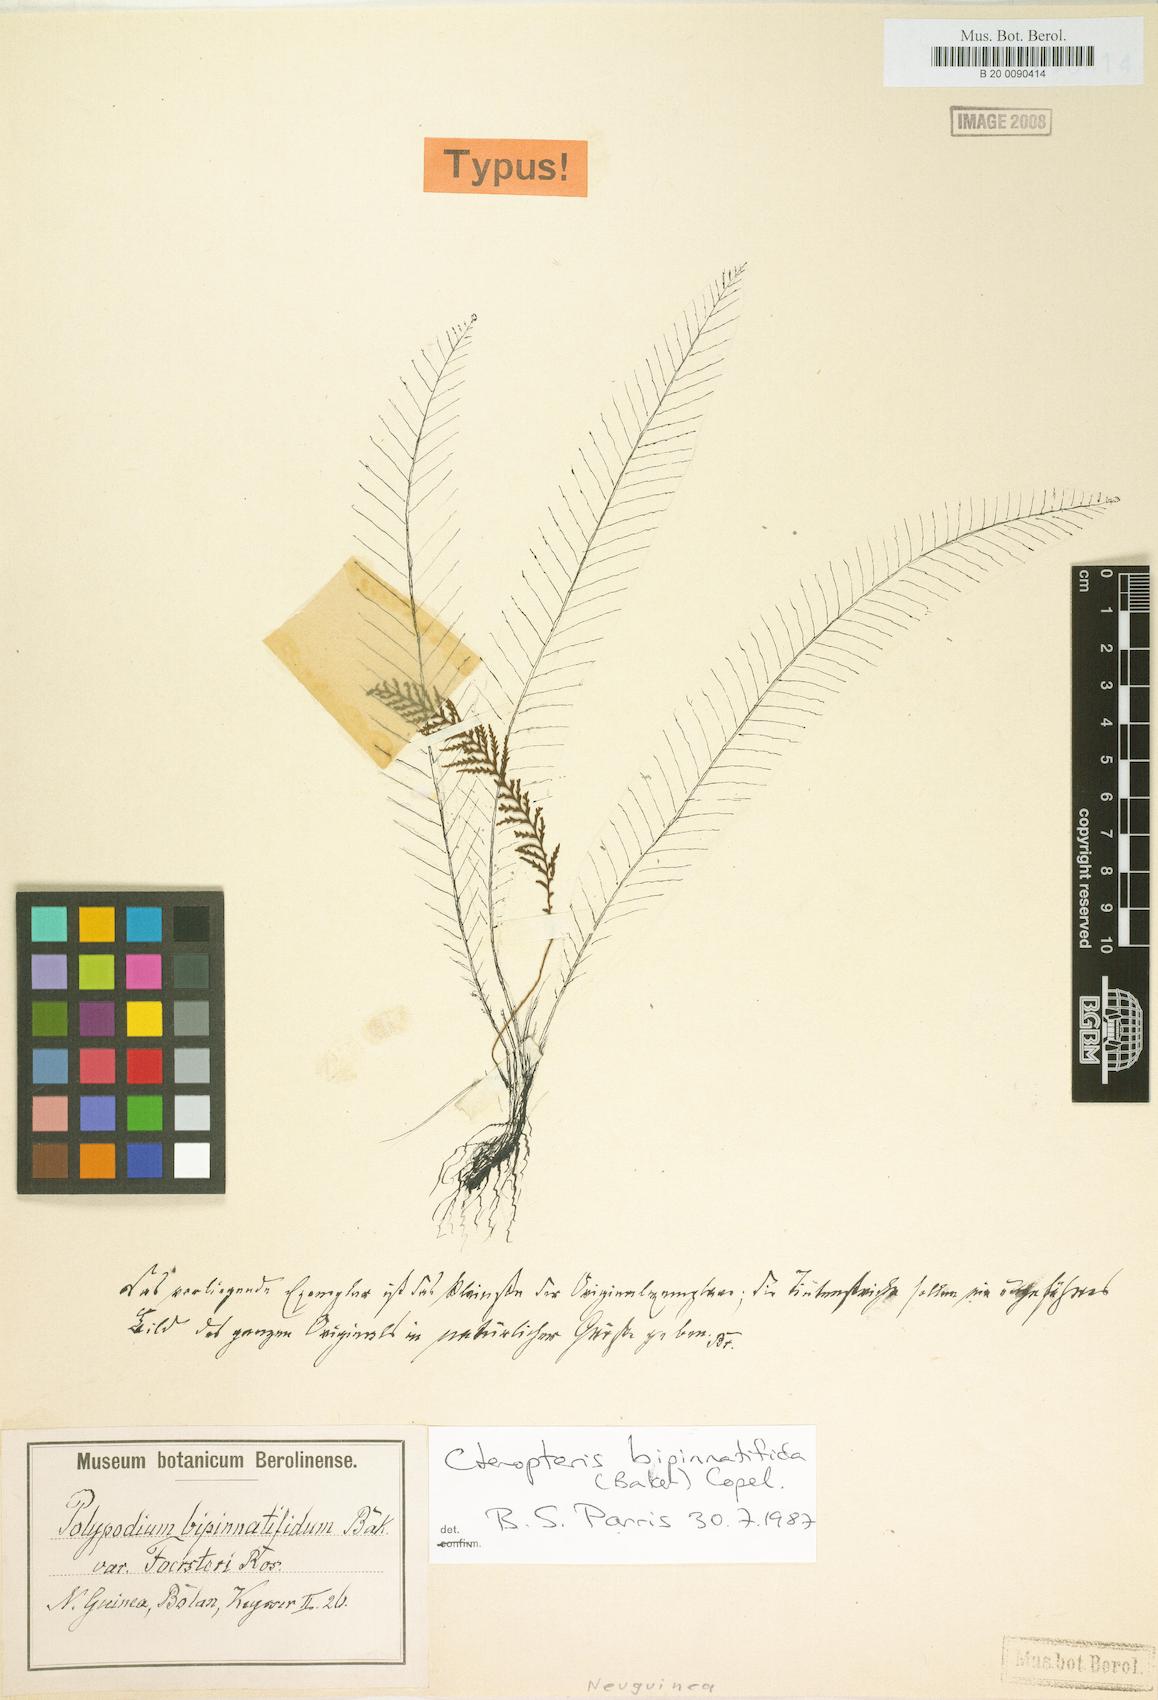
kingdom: Plantae
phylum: Tracheophyta
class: Polypodiopsida
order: Polypodiales
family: Polypodiaceae
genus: Tomophyllum
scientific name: Tomophyllum bipinnatifidum
